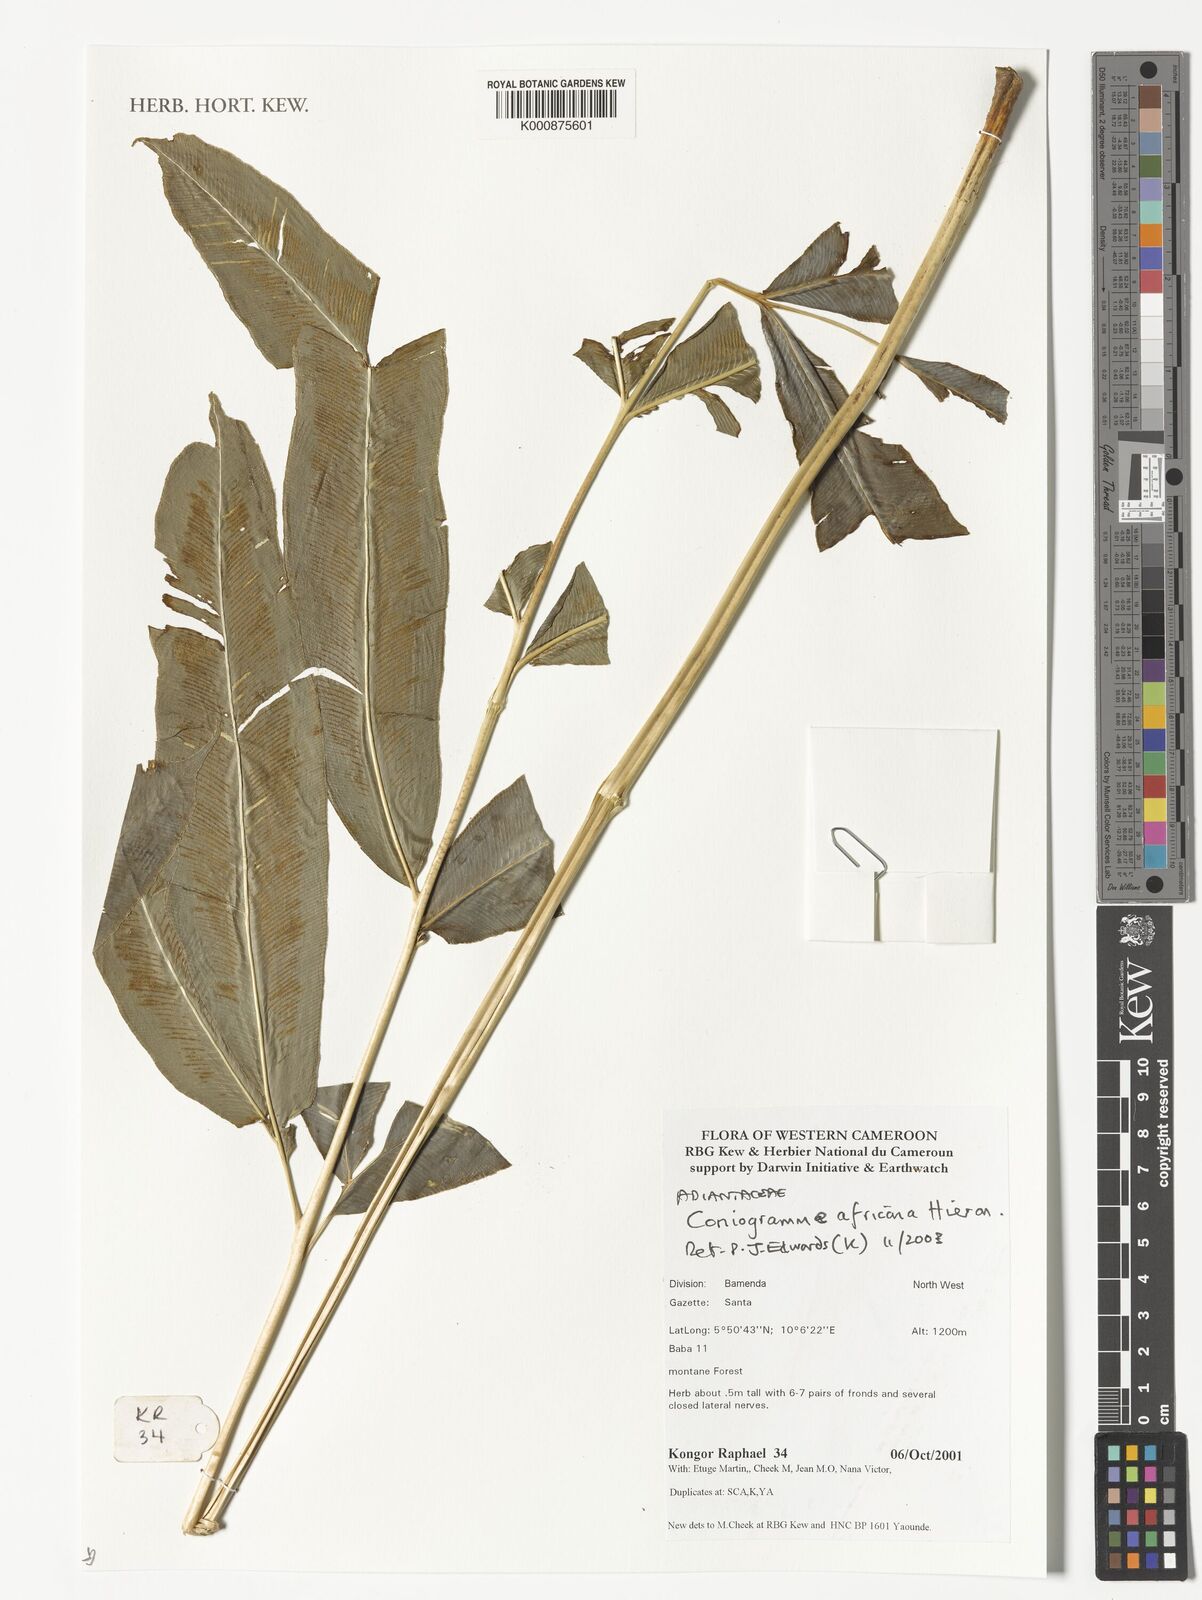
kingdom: Plantae
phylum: Tracheophyta
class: Polypodiopsida
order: Polypodiales
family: Pteridaceae
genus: Coniogramme
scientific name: Coniogramme africana
